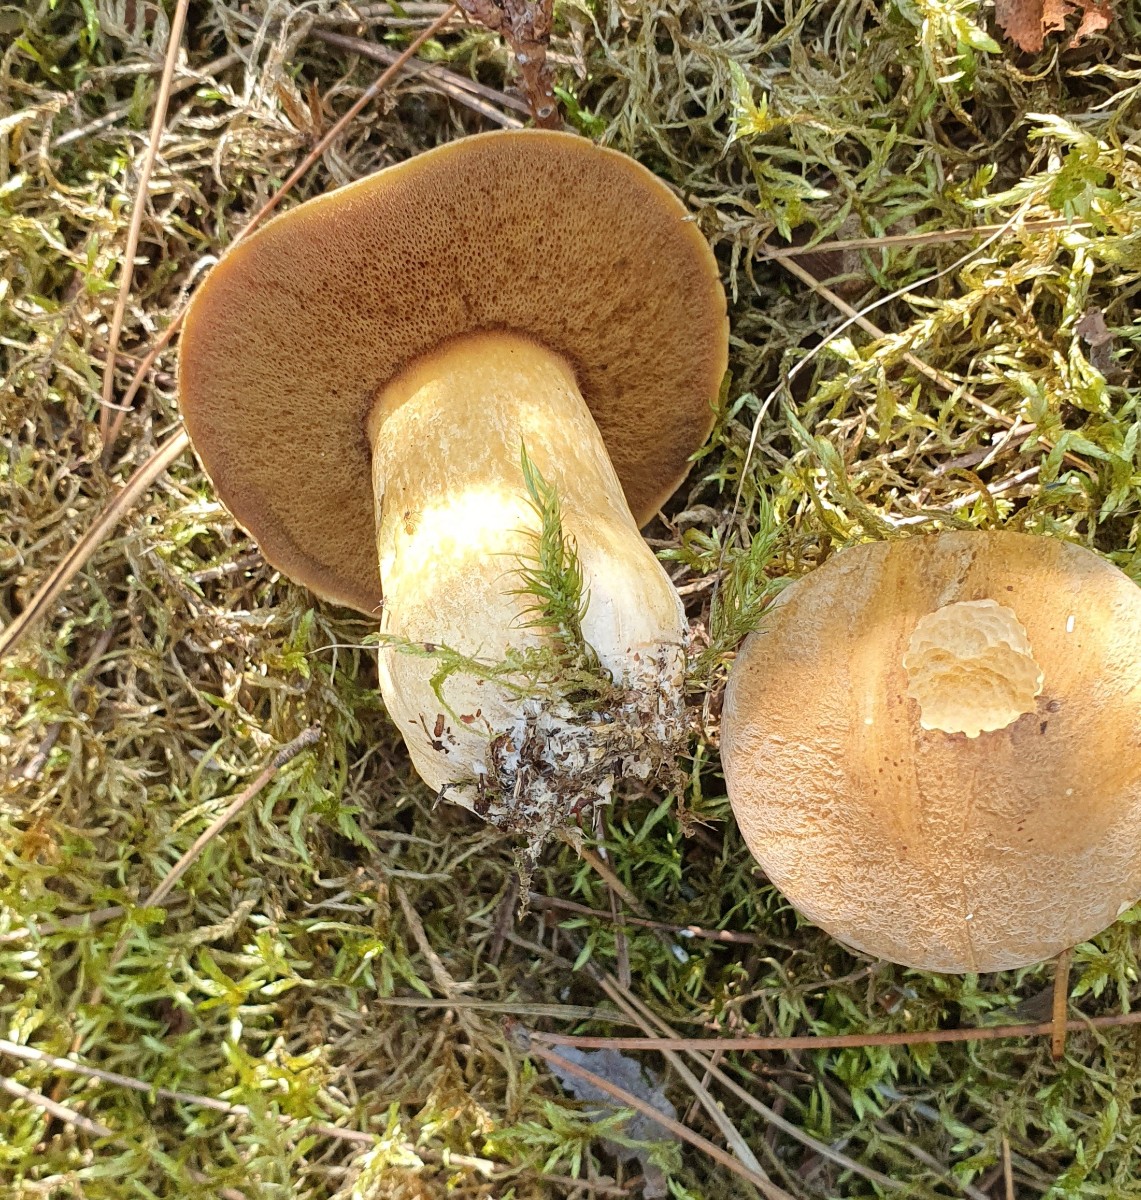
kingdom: Fungi
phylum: Basidiomycota
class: Agaricomycetes
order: Boletales
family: Suillaceae
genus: Suillus
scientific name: Suillus variegatus
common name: broget slimrørhat
